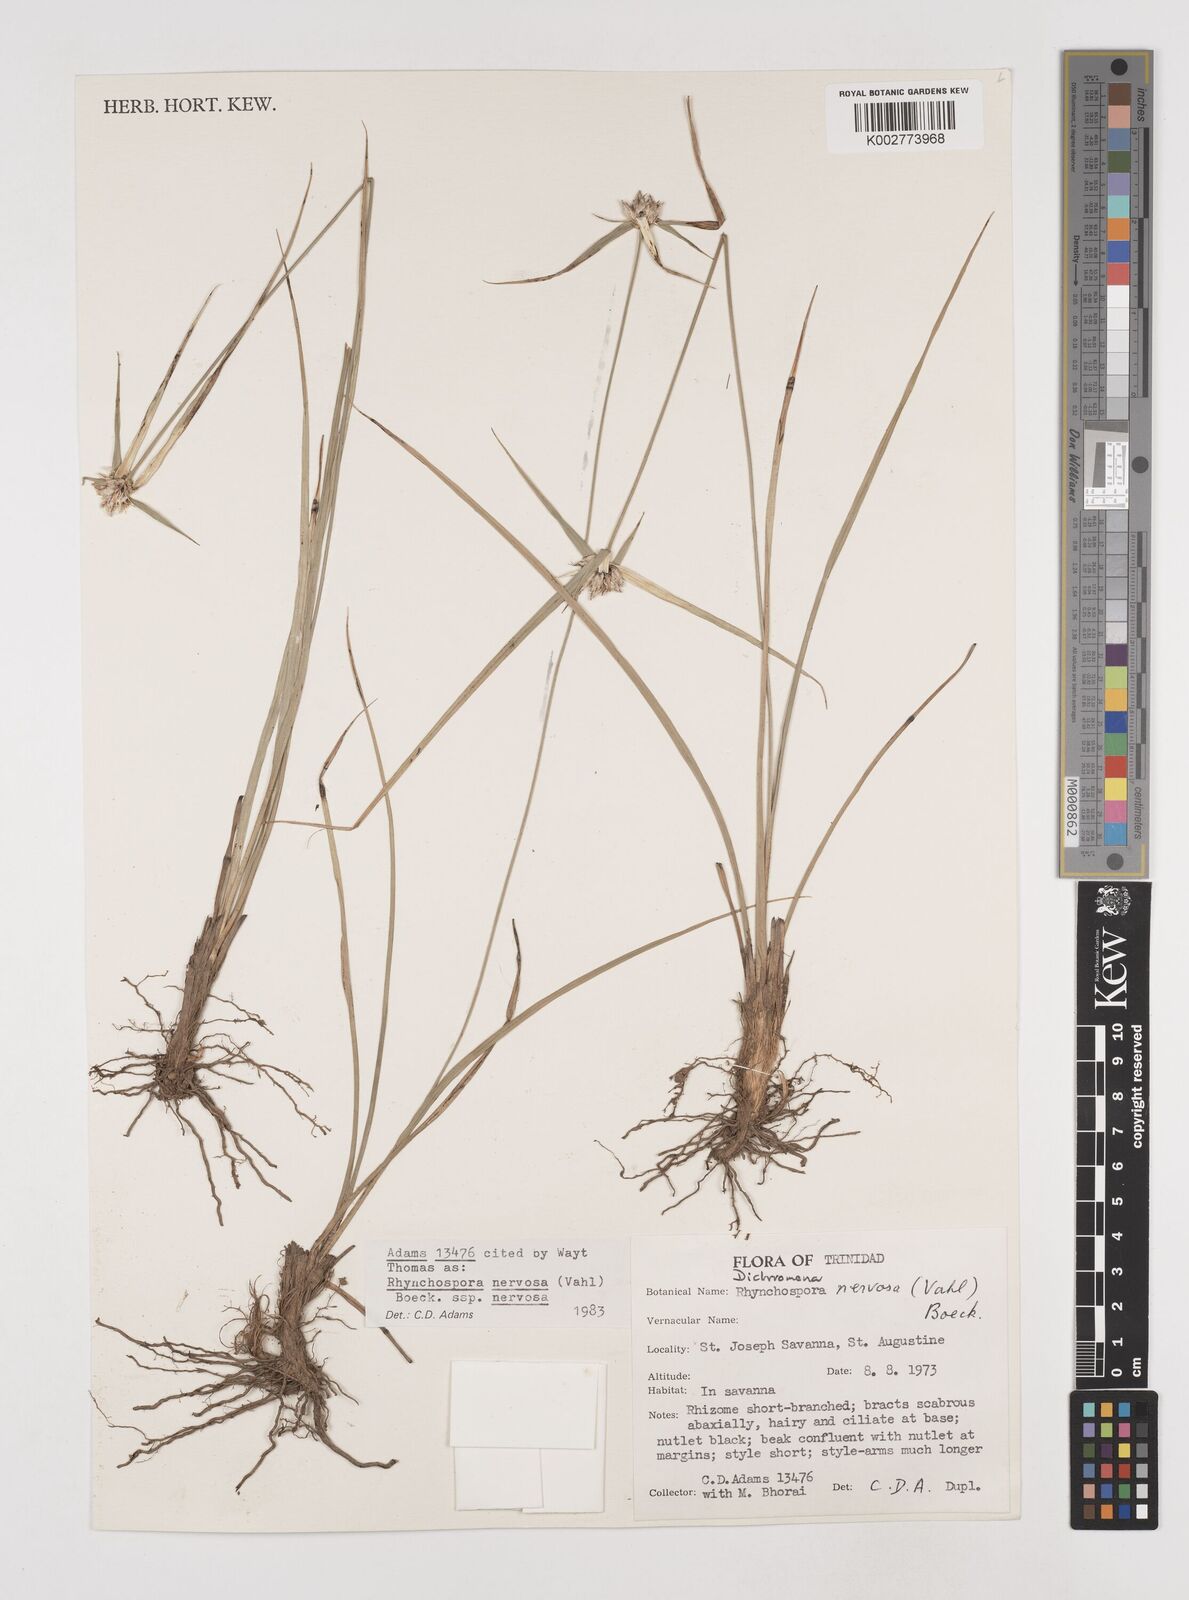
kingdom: Plantae
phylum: Tracheophyta
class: Liliopsida
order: Poales
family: Cyperaceae
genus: Rhynchospora
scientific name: Rhynchospora nervosa
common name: Star sedge
